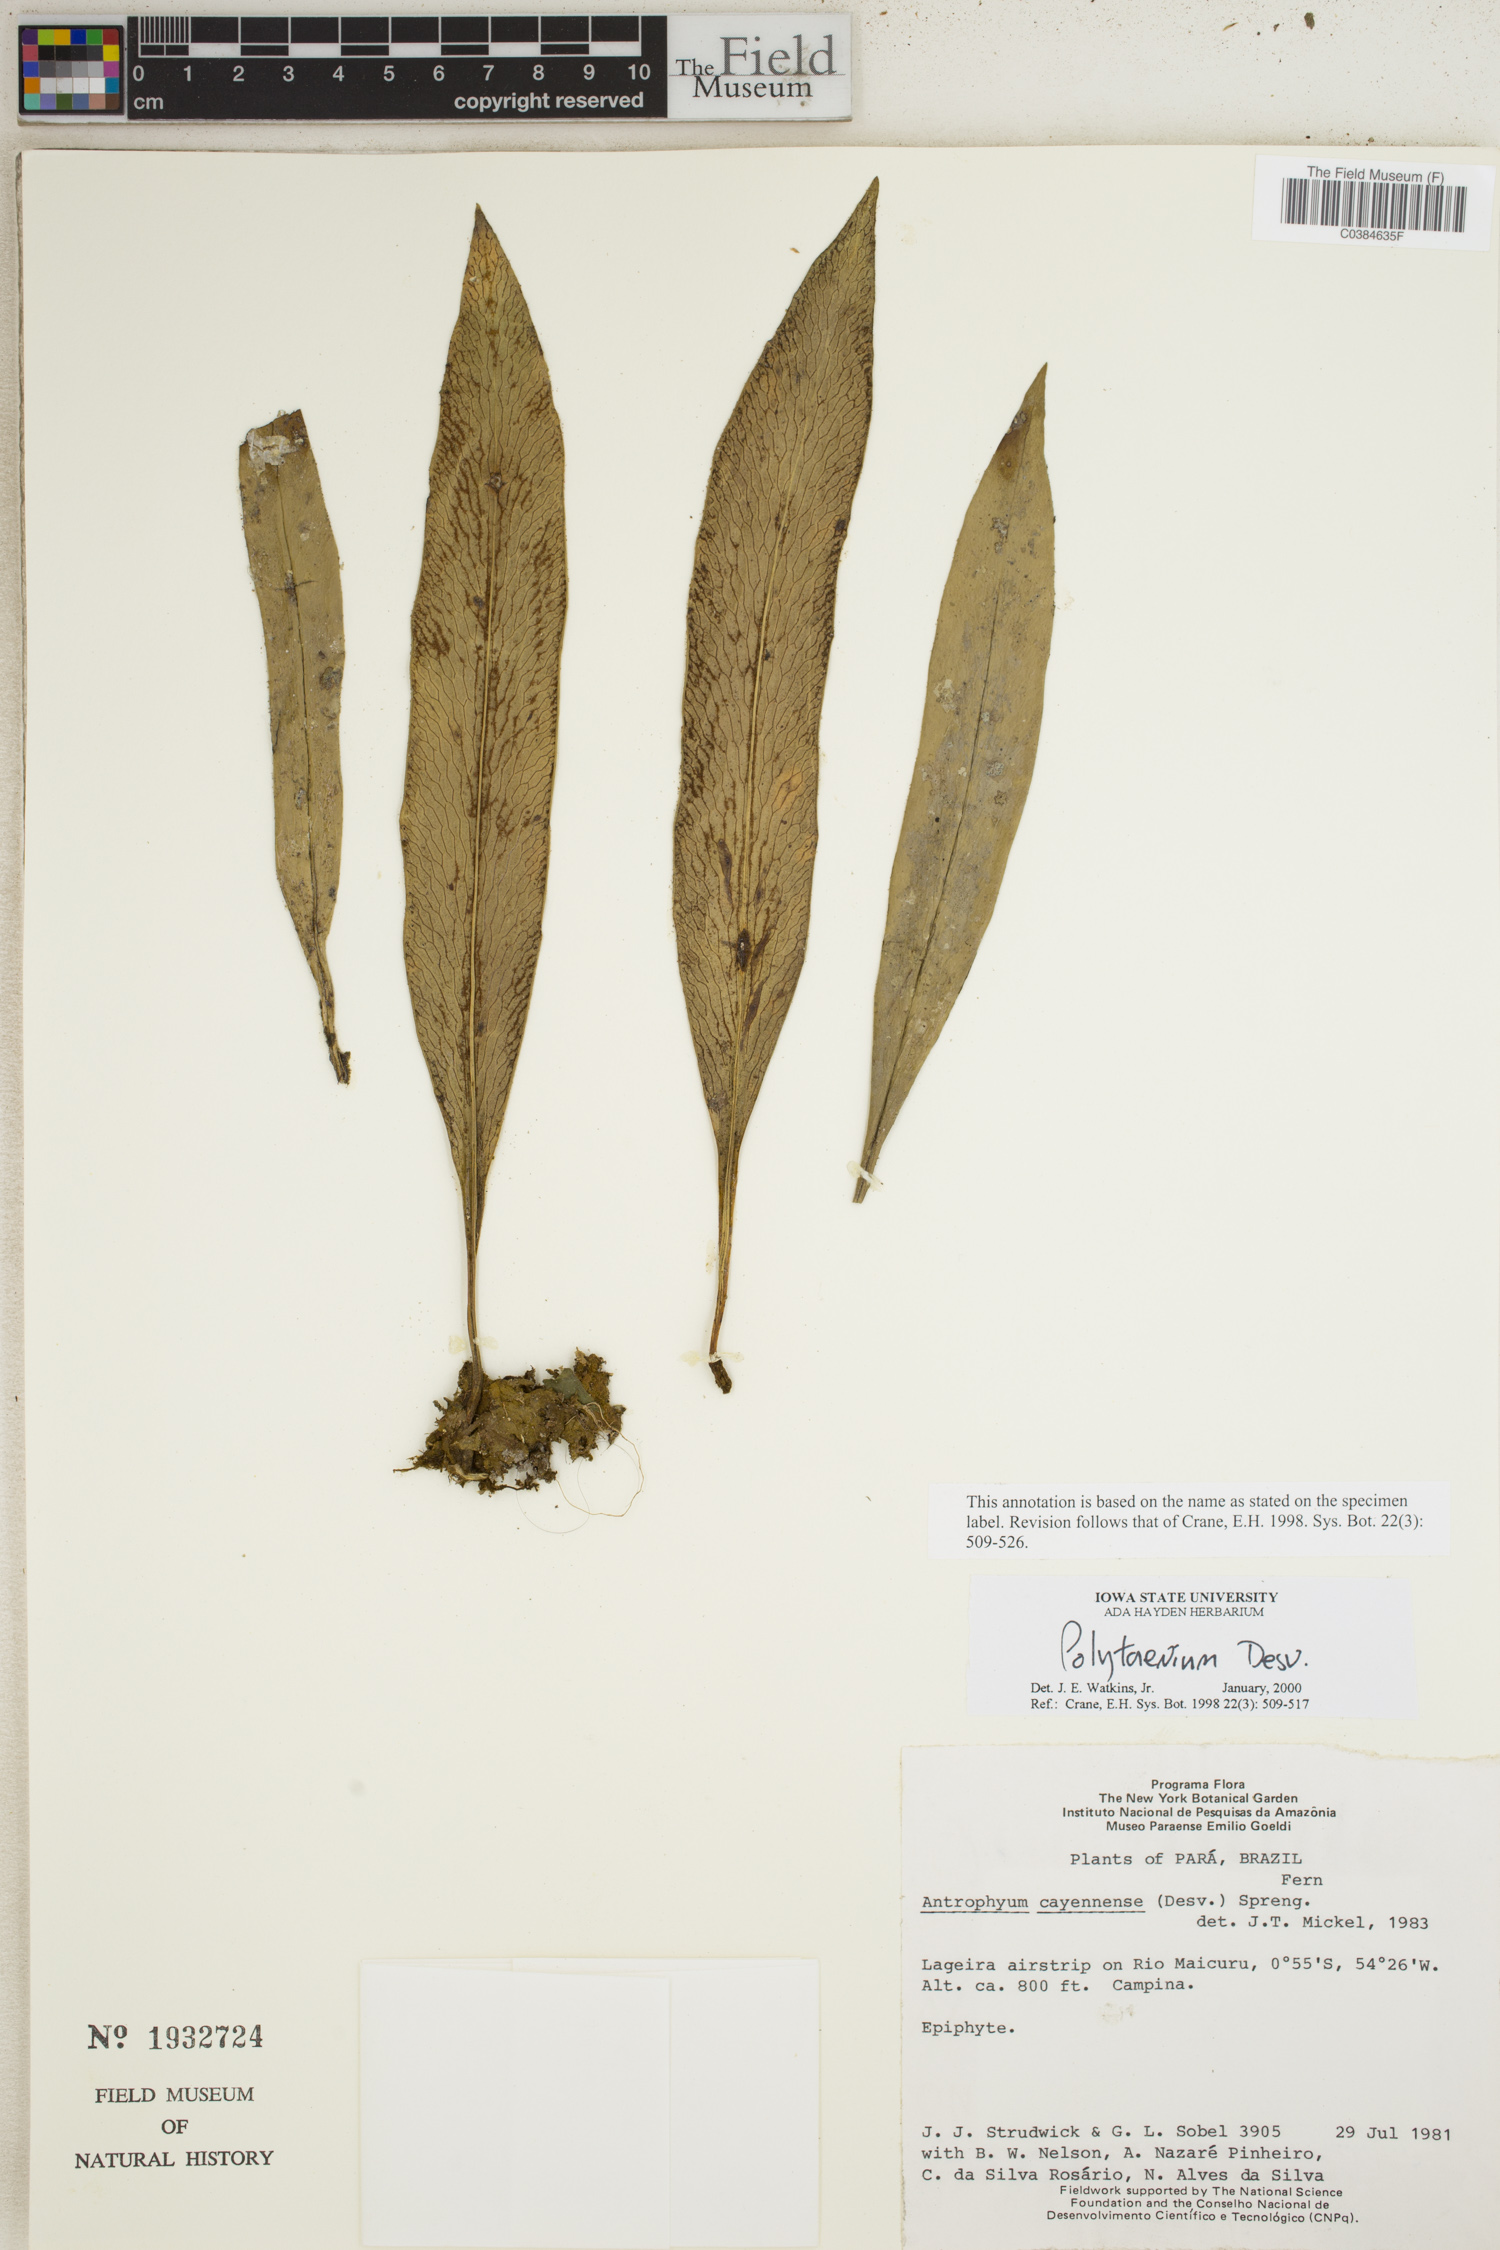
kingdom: Plantae
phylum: Tracheophyta
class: Polypodiopsida
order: Polypodiales
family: Pteridaceae
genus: Polytaenium
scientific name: Polytaenium
